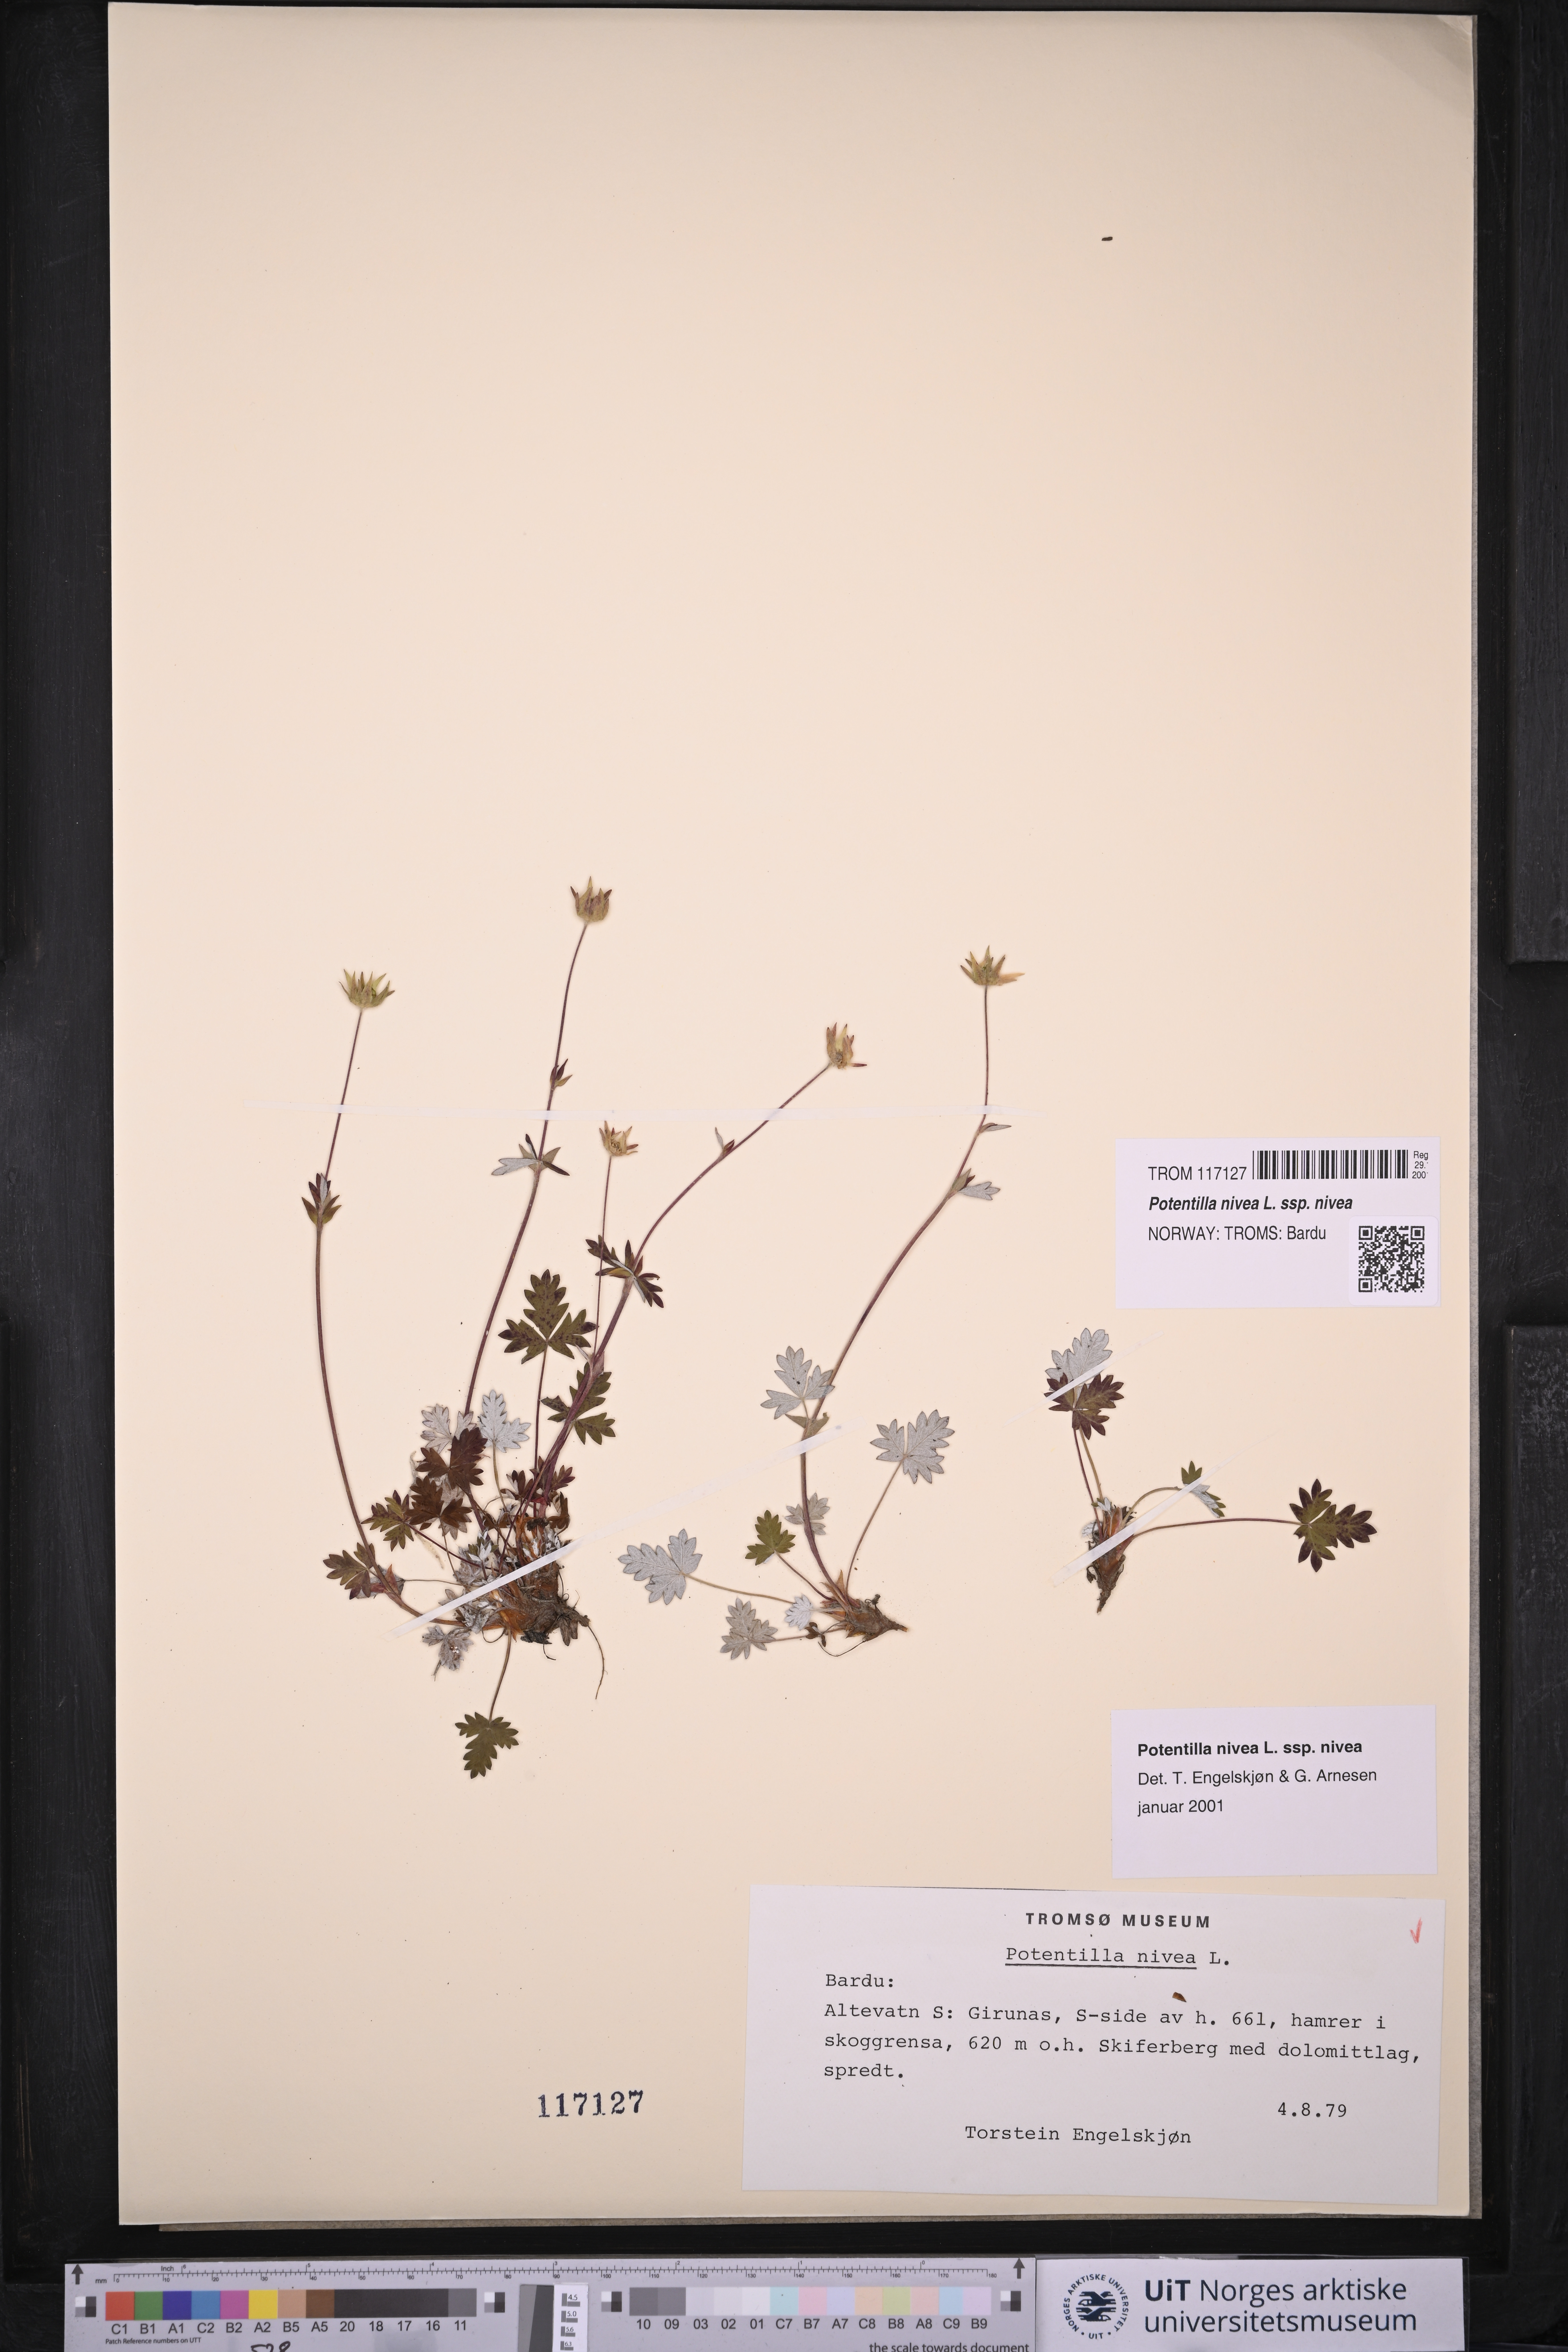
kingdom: Plantae
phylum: Tracheophyta
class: Magnoliopsida
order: Rosales
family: Rosaceae
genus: Potentilla
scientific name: Potentilla nivea
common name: Snow cinquefoil
